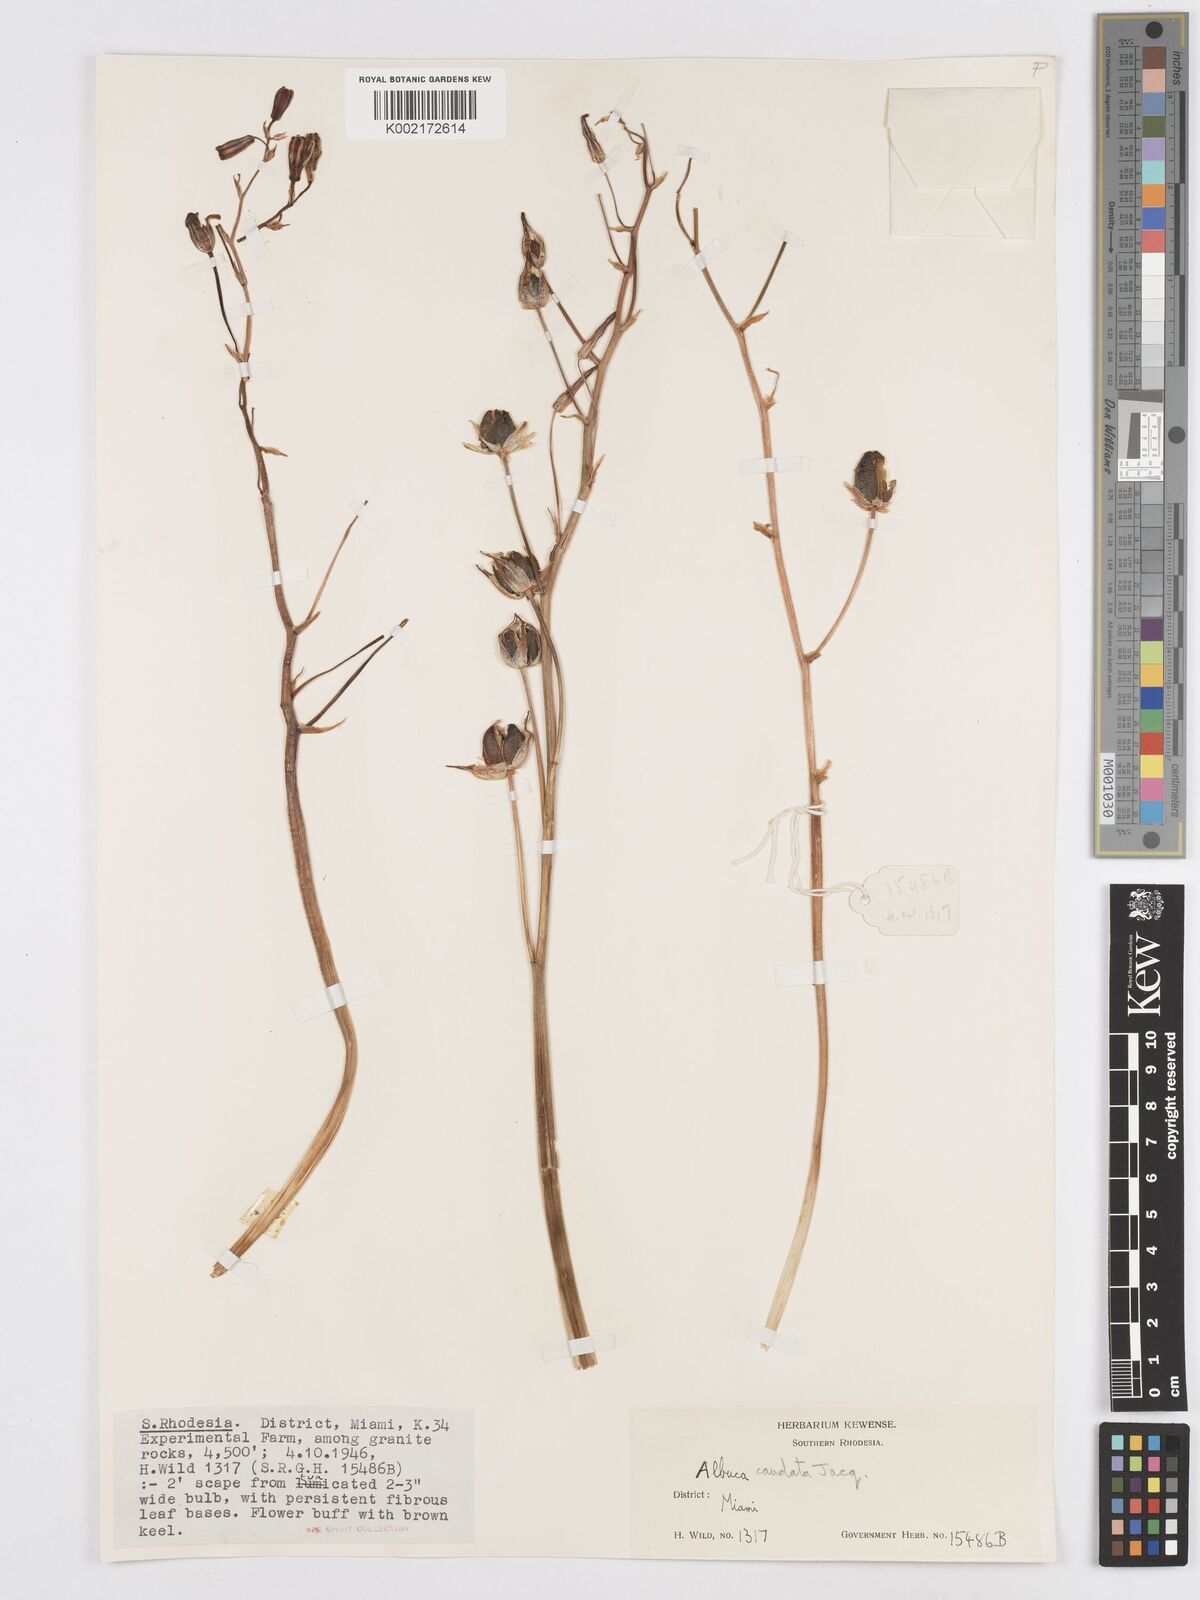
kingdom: Plantae
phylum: Tracheophyta
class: Liliopsida
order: Asparagales
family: Asparagaceae
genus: Albuca
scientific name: Albuca kirkii
